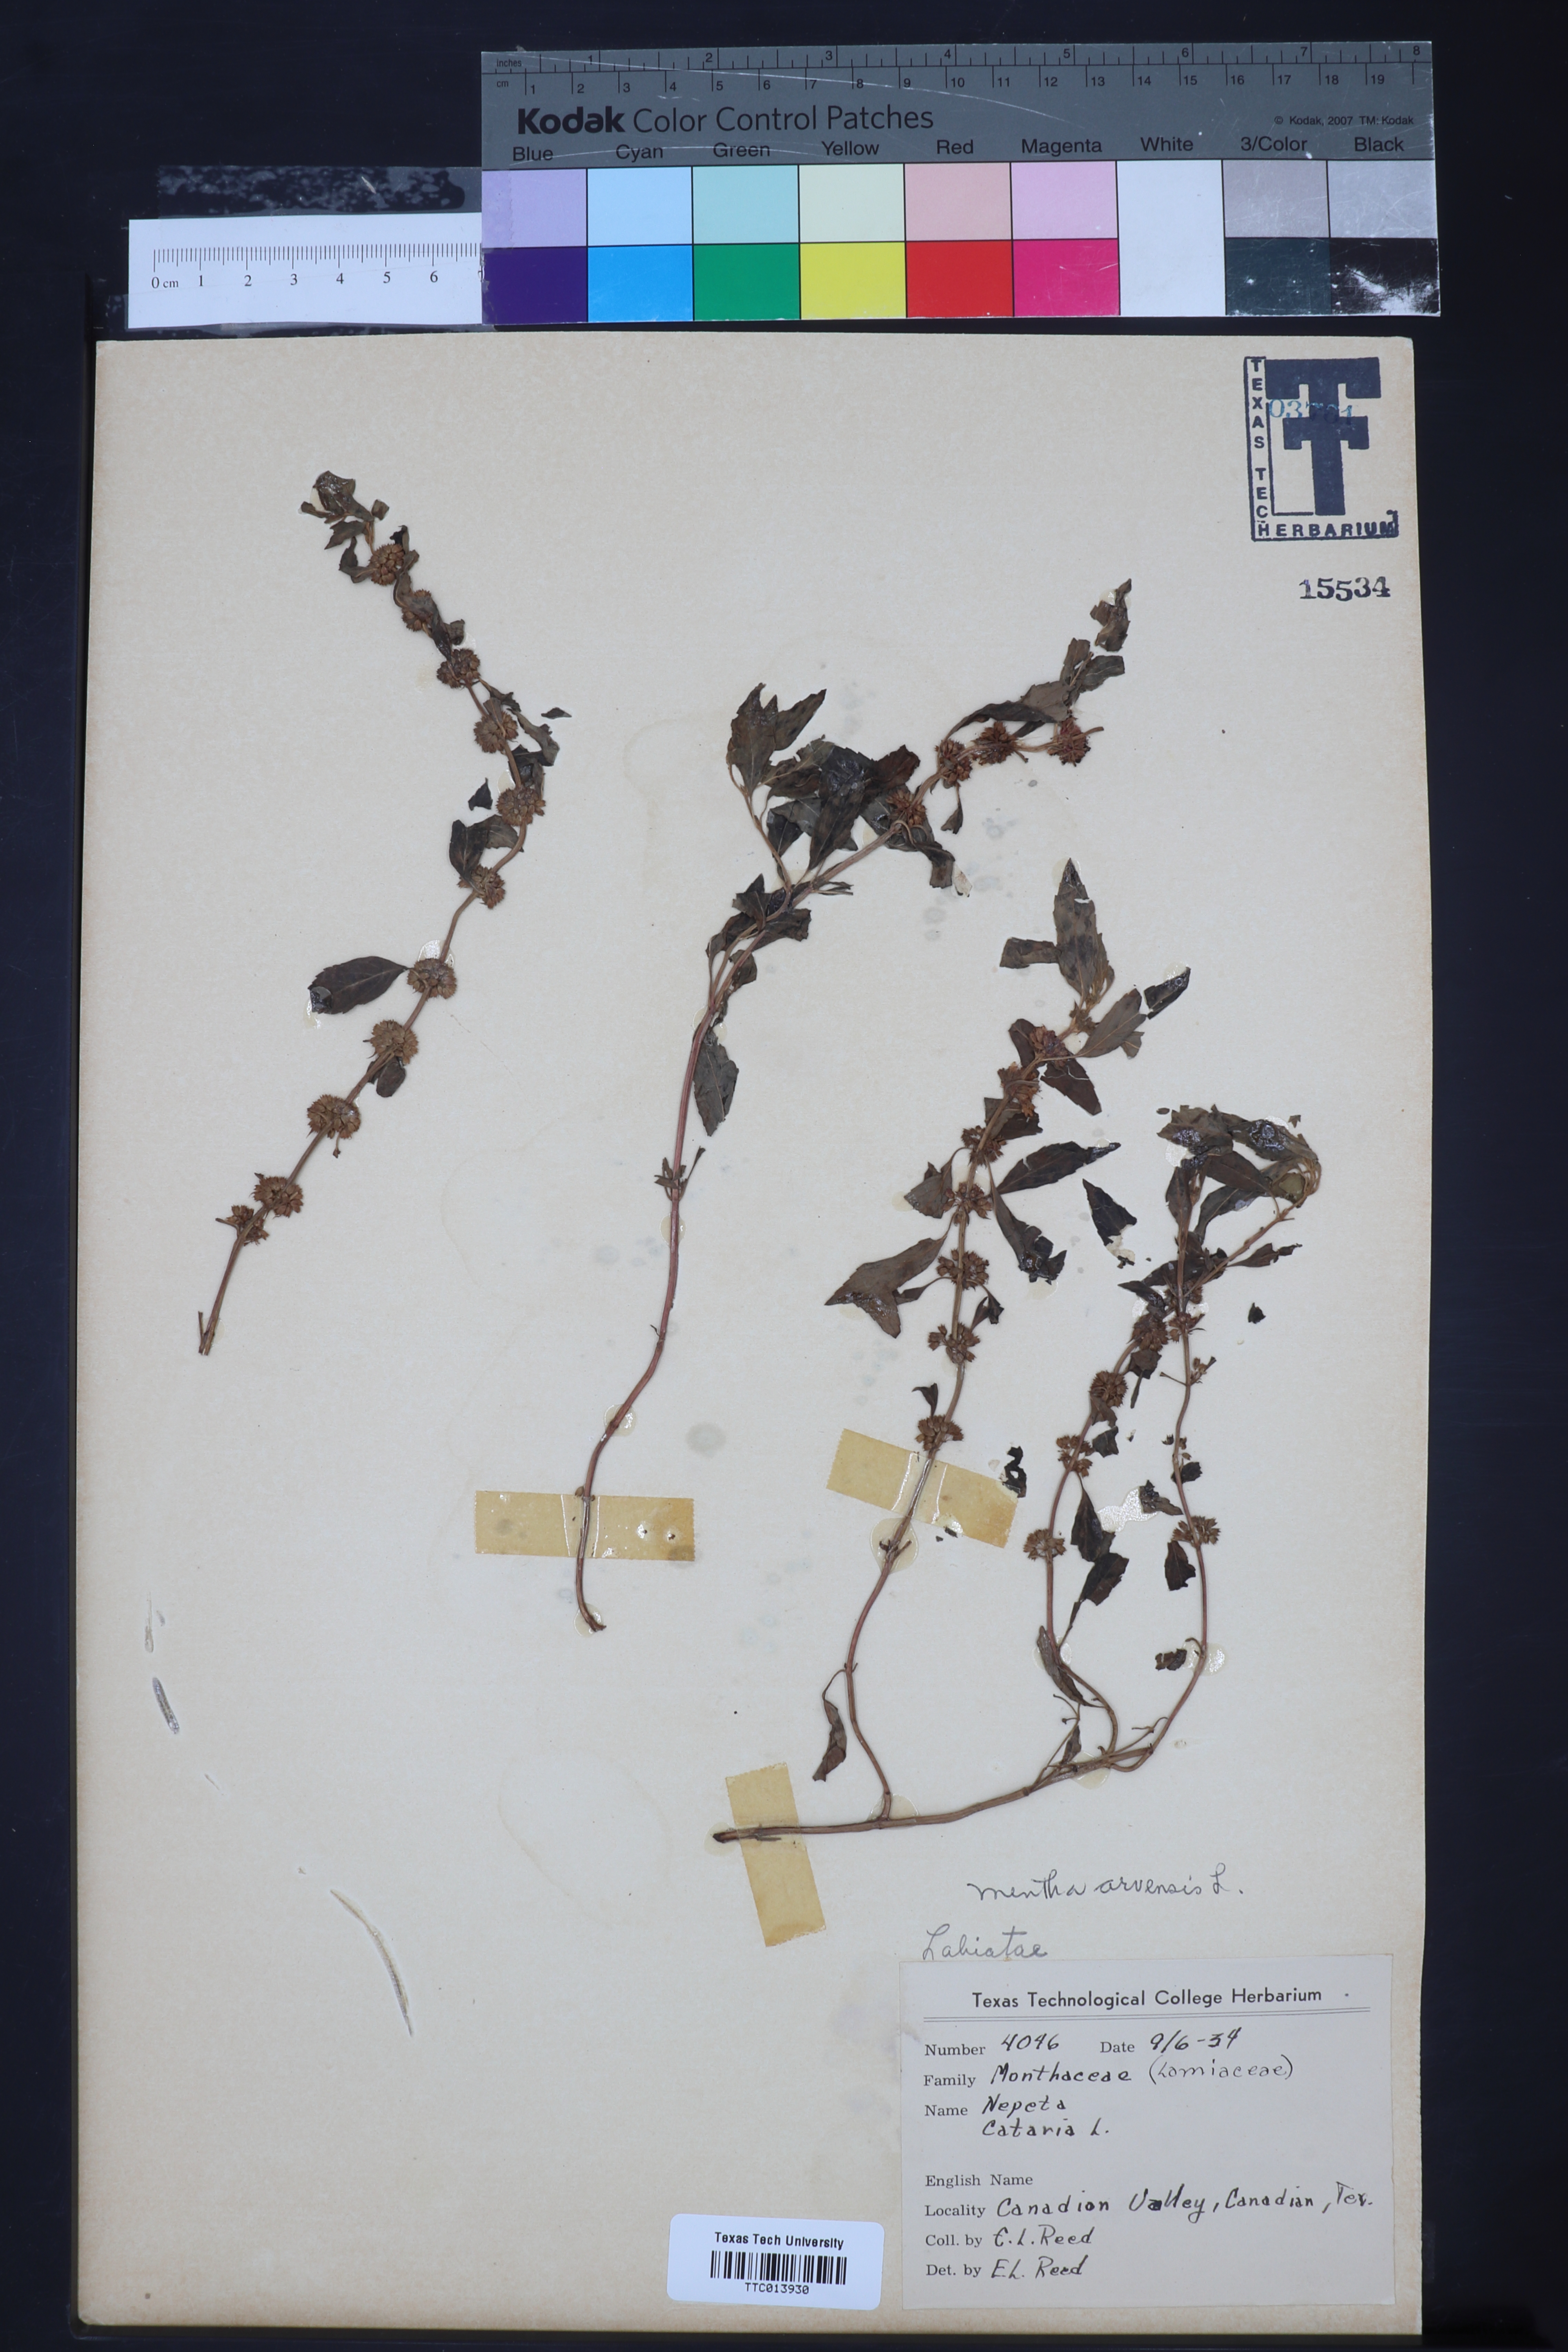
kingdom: Plantae
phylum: Tracheophyta
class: Magnoliopsida
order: Lamiales
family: Lamiaceae
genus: Mentha
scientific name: Mentha arvensis
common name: Corn mint
